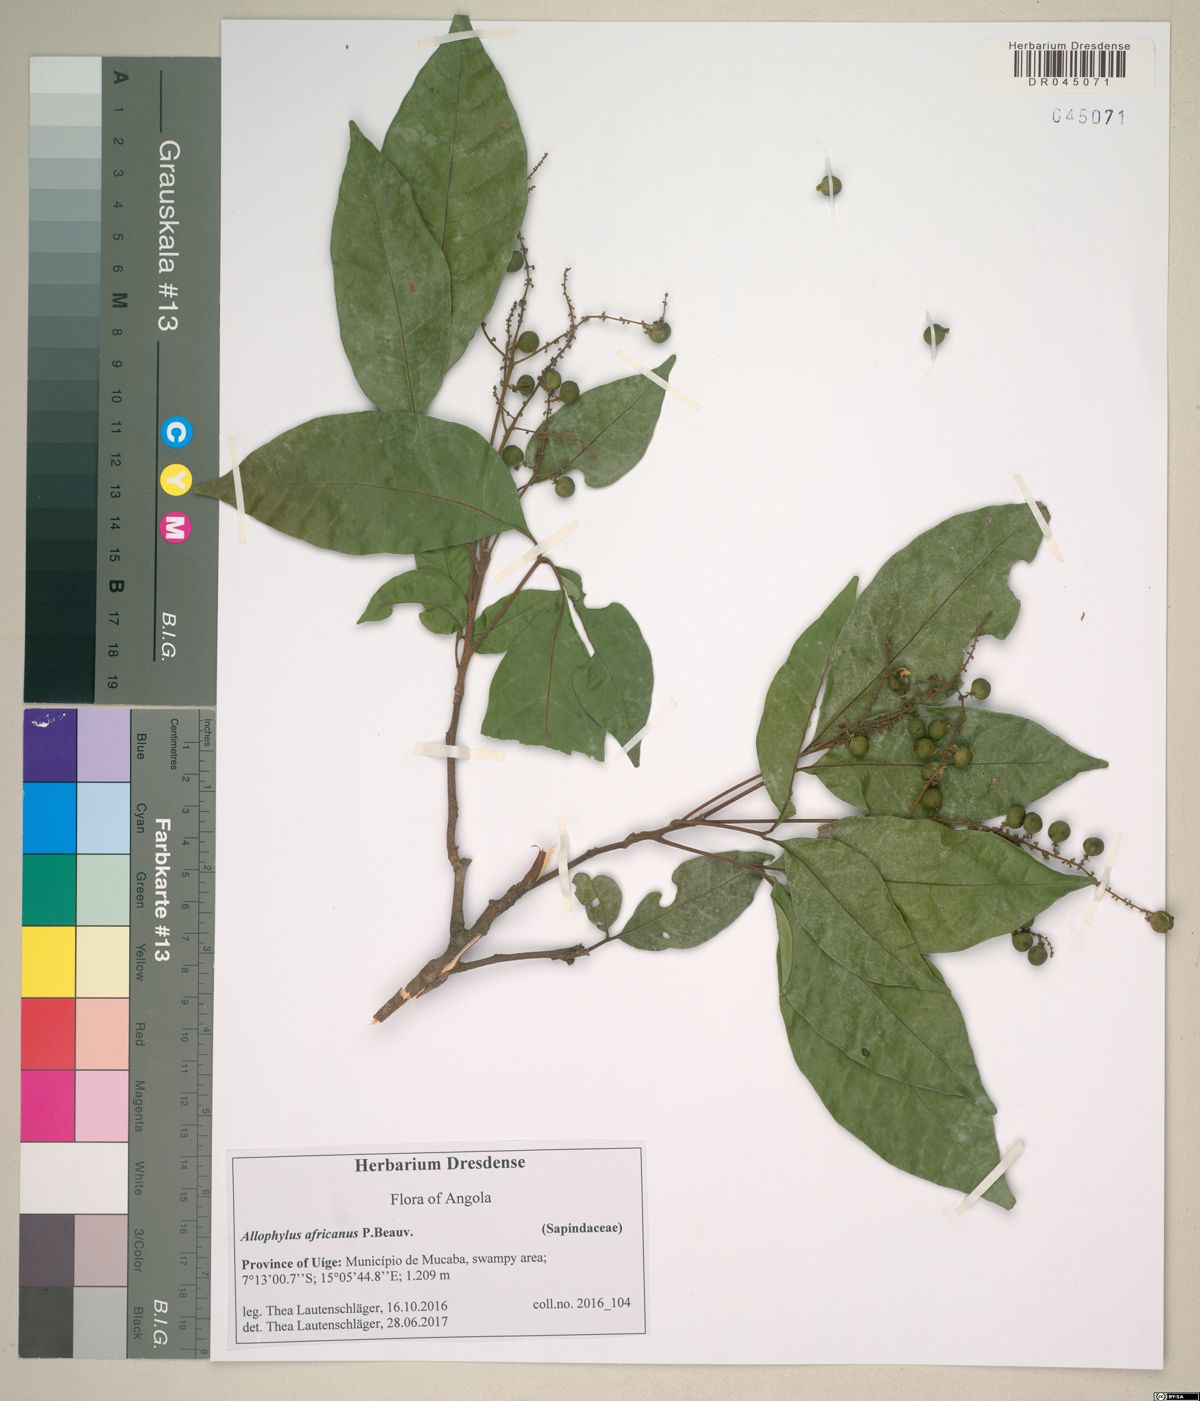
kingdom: Plantae
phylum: Tracheophyta
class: Magnoliopsida
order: Sapindales
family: Sapindaceae
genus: Allophylus
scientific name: Allophylus gossweileri
